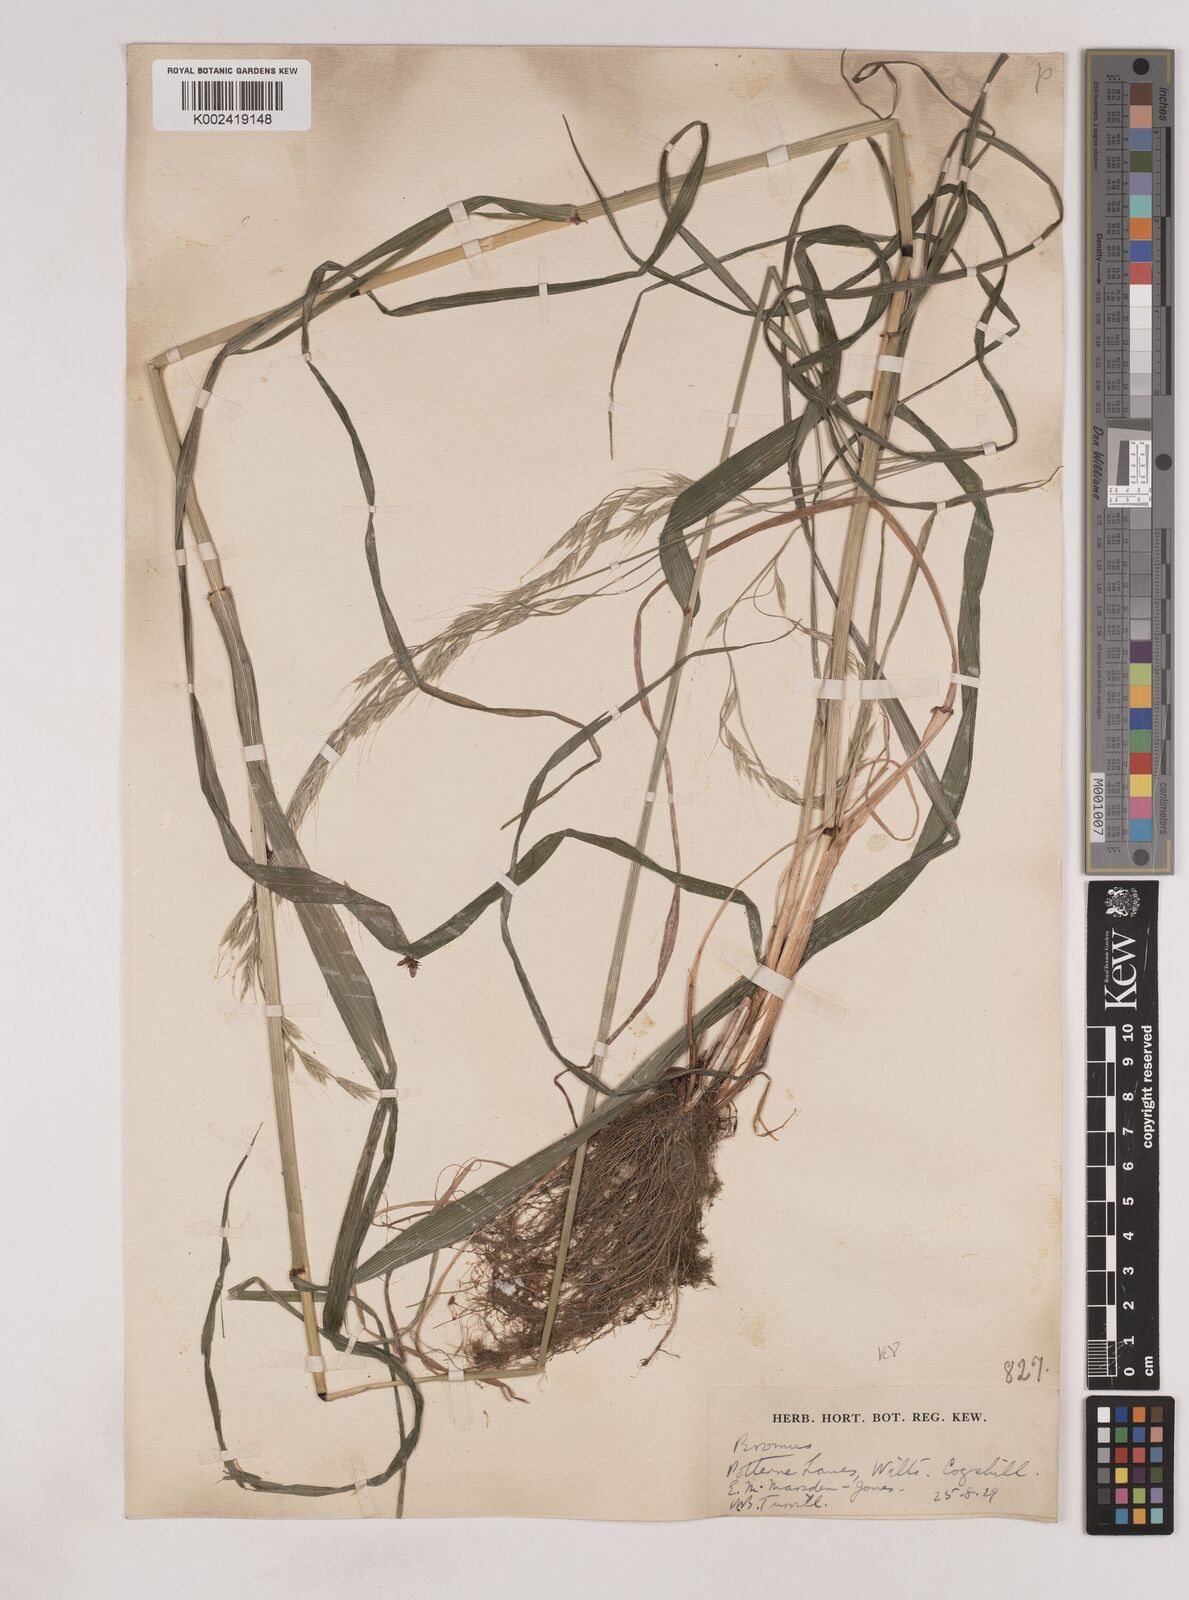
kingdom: Plantae
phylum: Tracheophyta
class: Liliopsida
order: Poales
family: Poaceae
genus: Lolium
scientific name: Lolium giganteum
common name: Giant fescue
